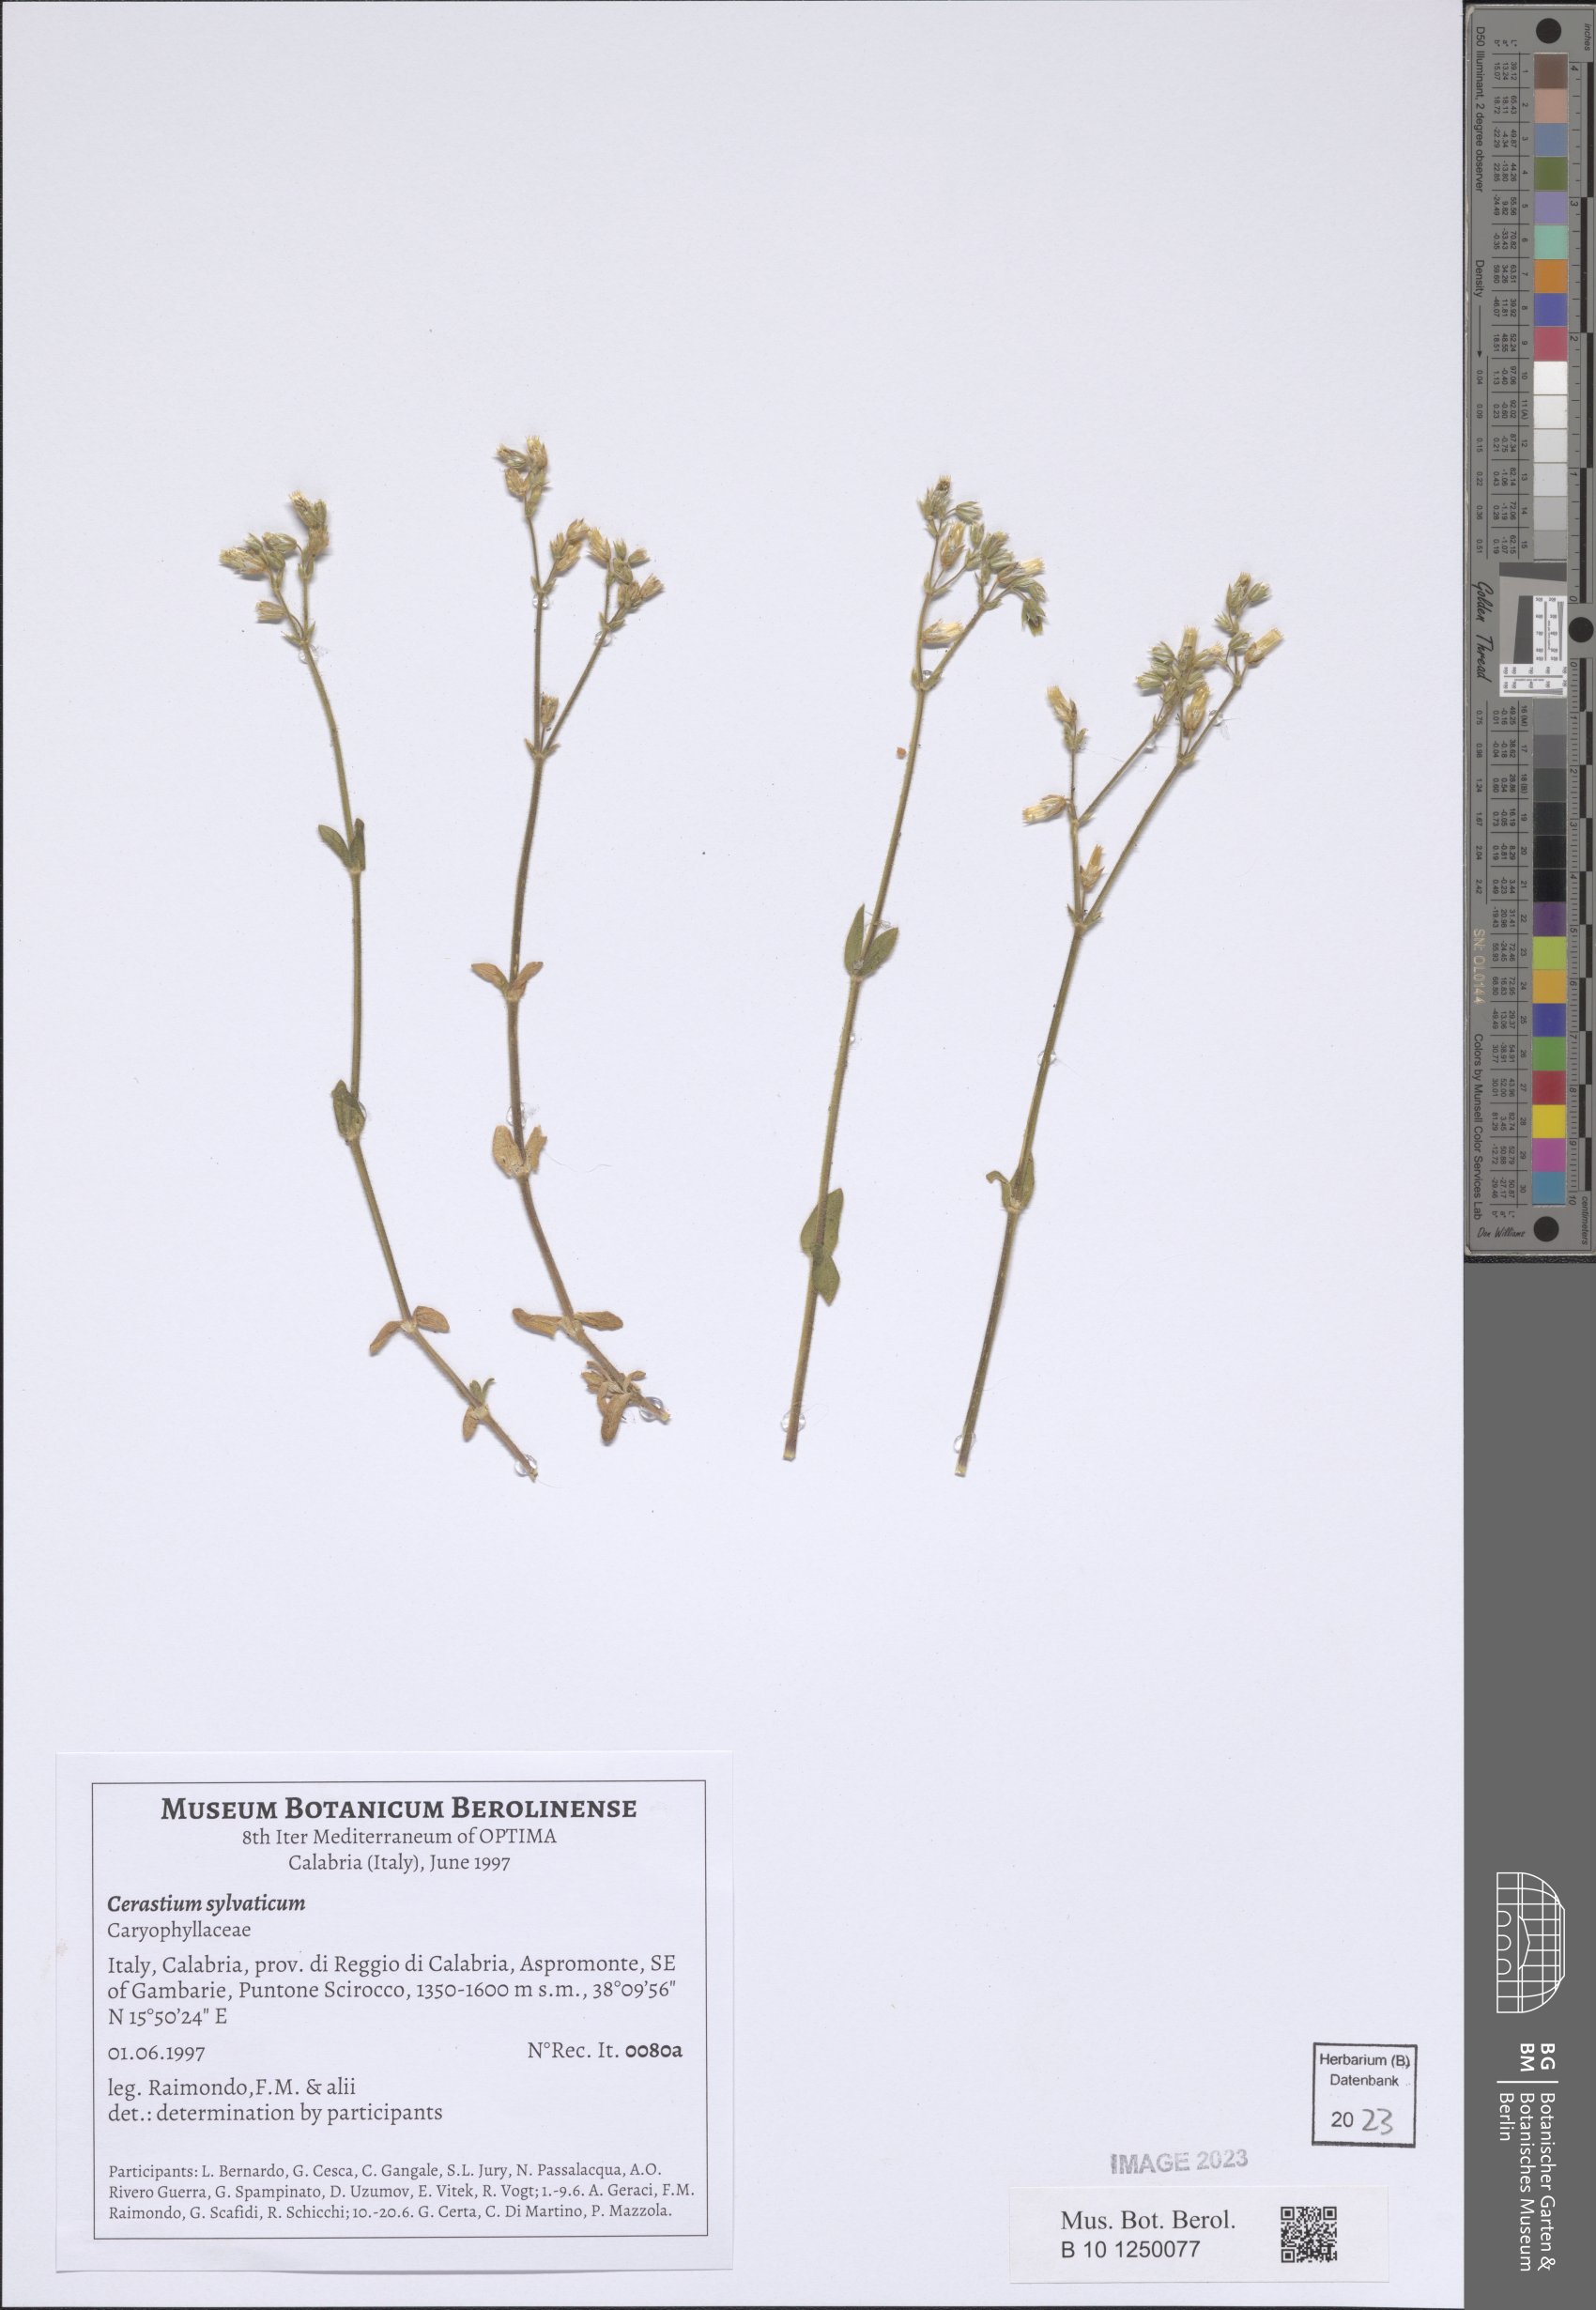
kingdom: Plantae
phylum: Tracheophyta
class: Magnoliopsida
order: Caryophyllales
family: Caryophyllaceae
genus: Cerastium
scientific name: Cerastium sylvaticum
